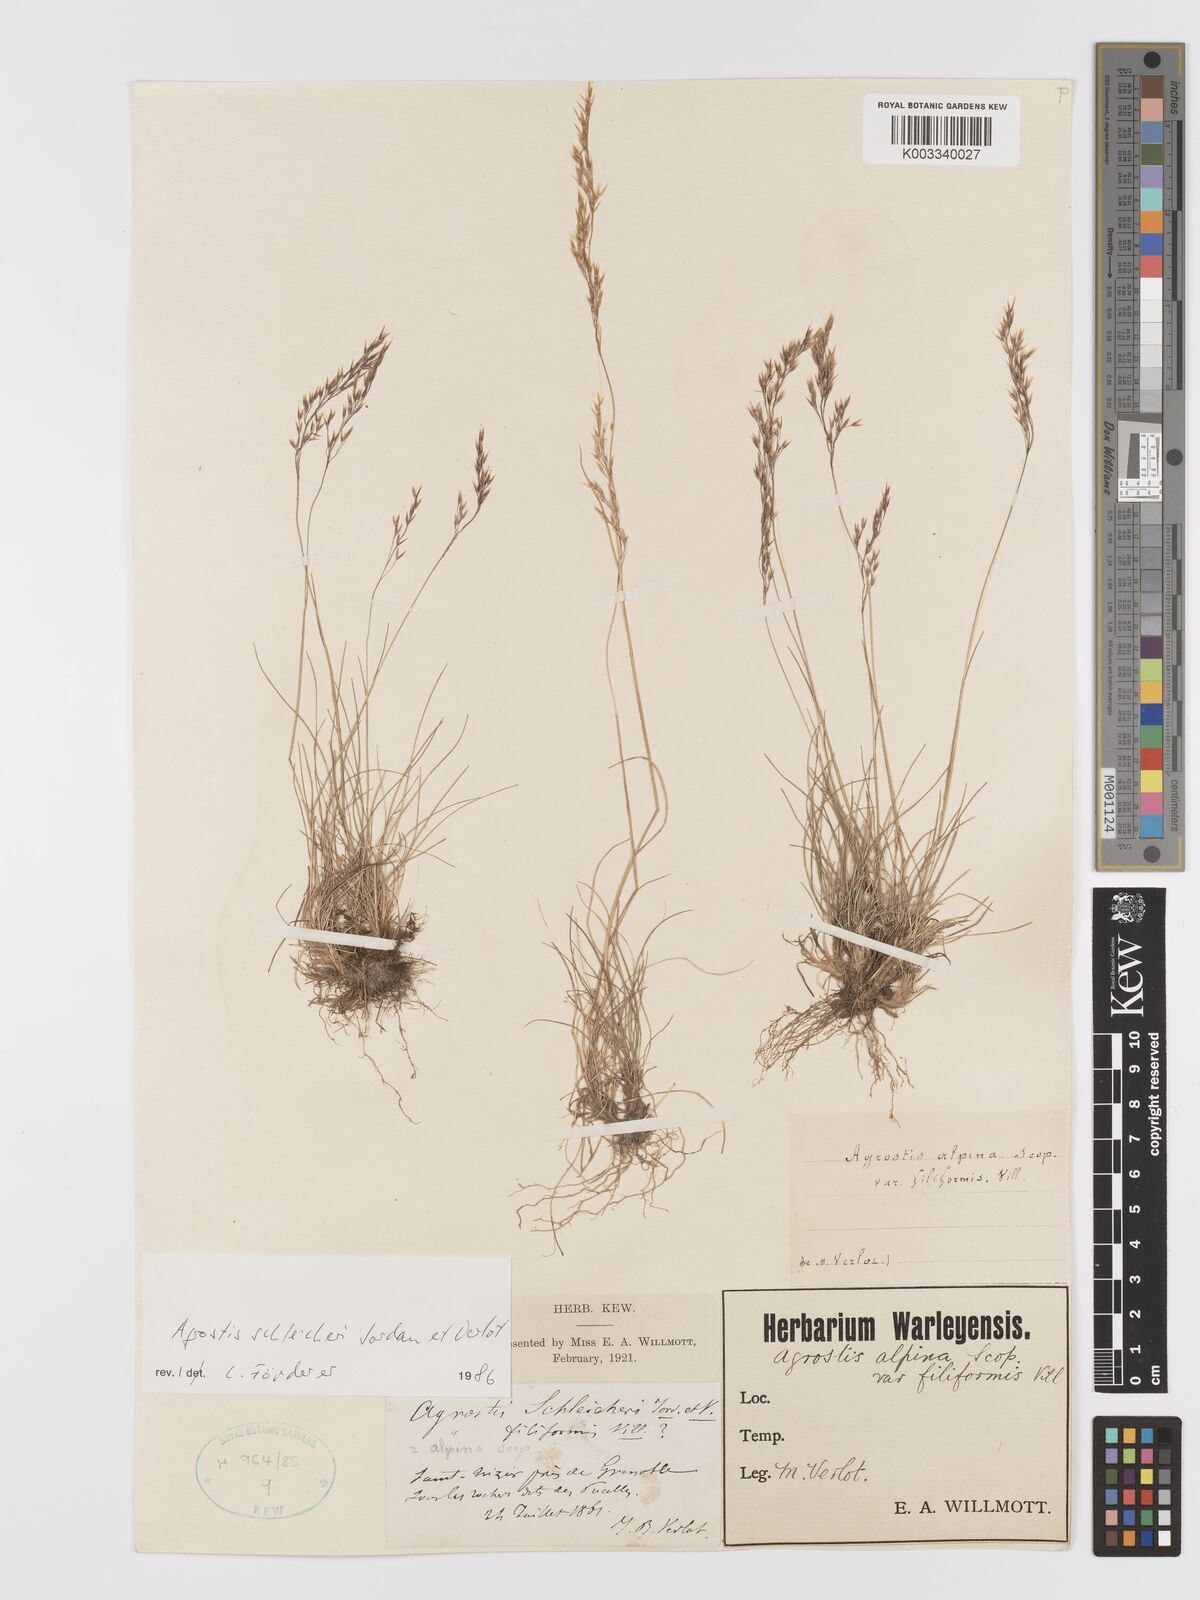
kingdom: Plantae
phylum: Tracheophyta
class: Liliopsida
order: Poales
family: Poaceae
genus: Alpagrostis
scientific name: Alpagrostis schleicheri
